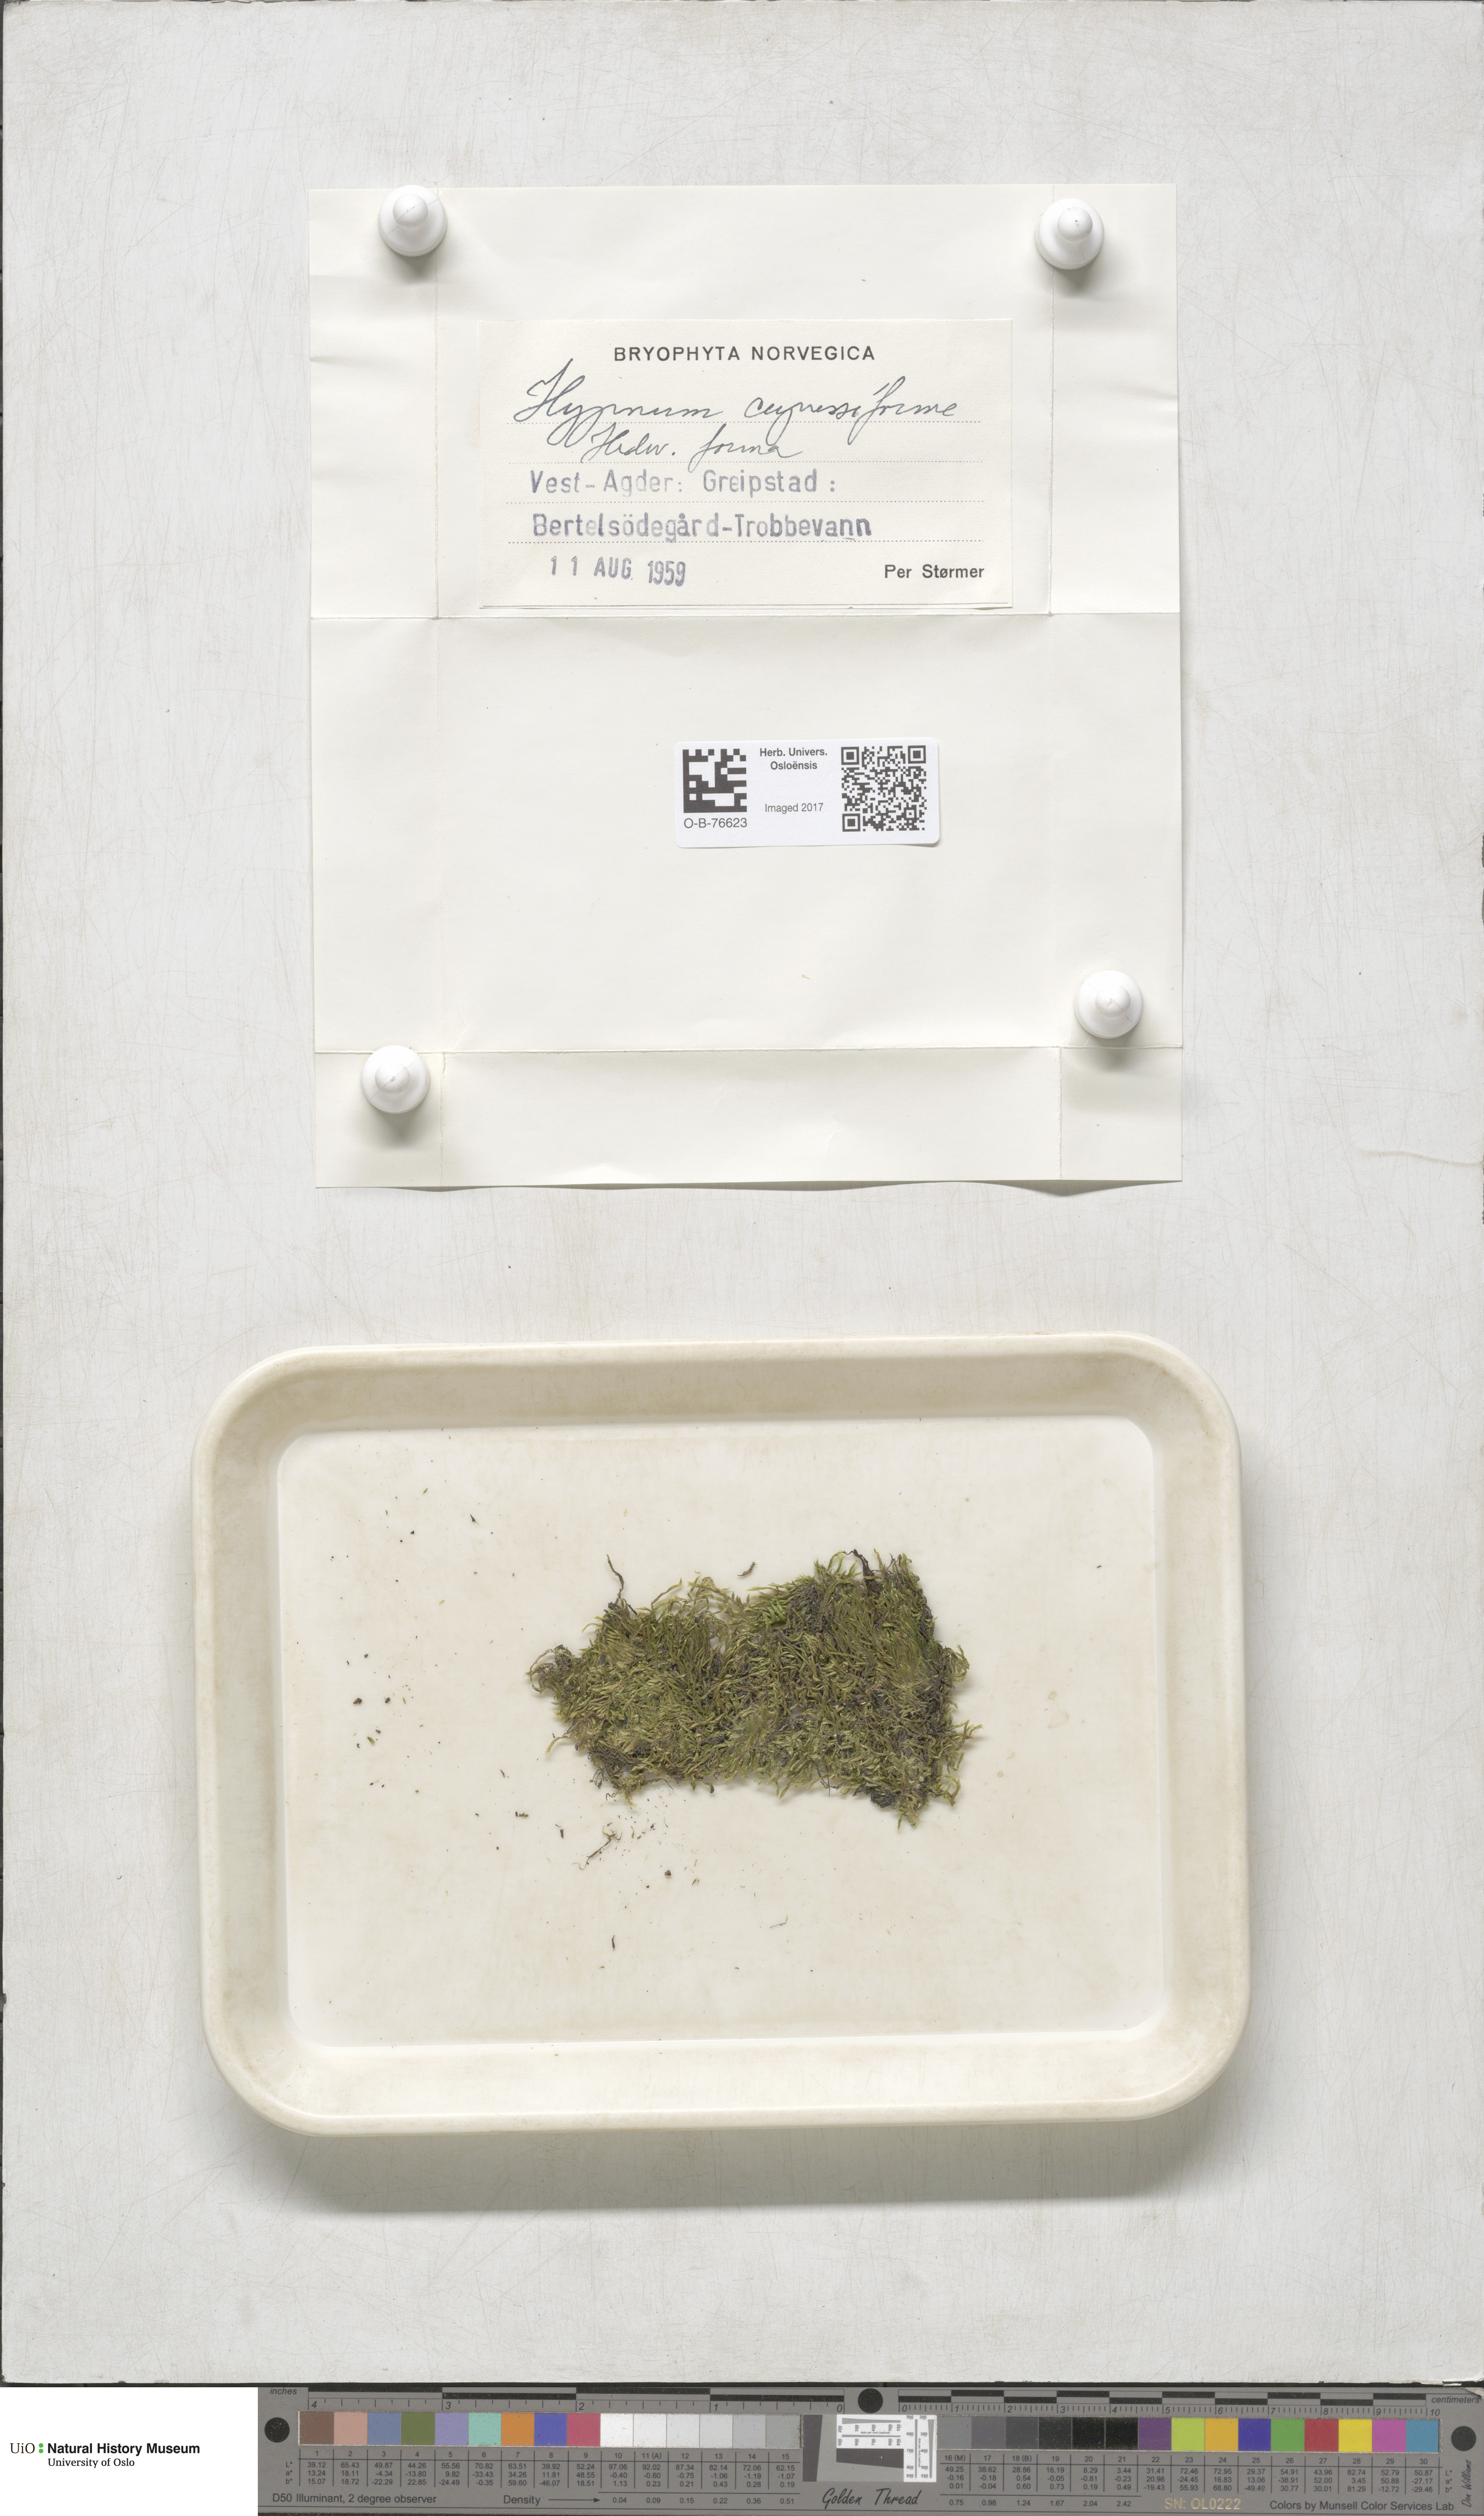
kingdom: Plantae
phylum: Bryophyta
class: Bryopsida
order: Hypnales
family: Hypnaceae
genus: Hypnum
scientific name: Hypnum cupressiforme
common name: Cypress-leaved plait-moss
